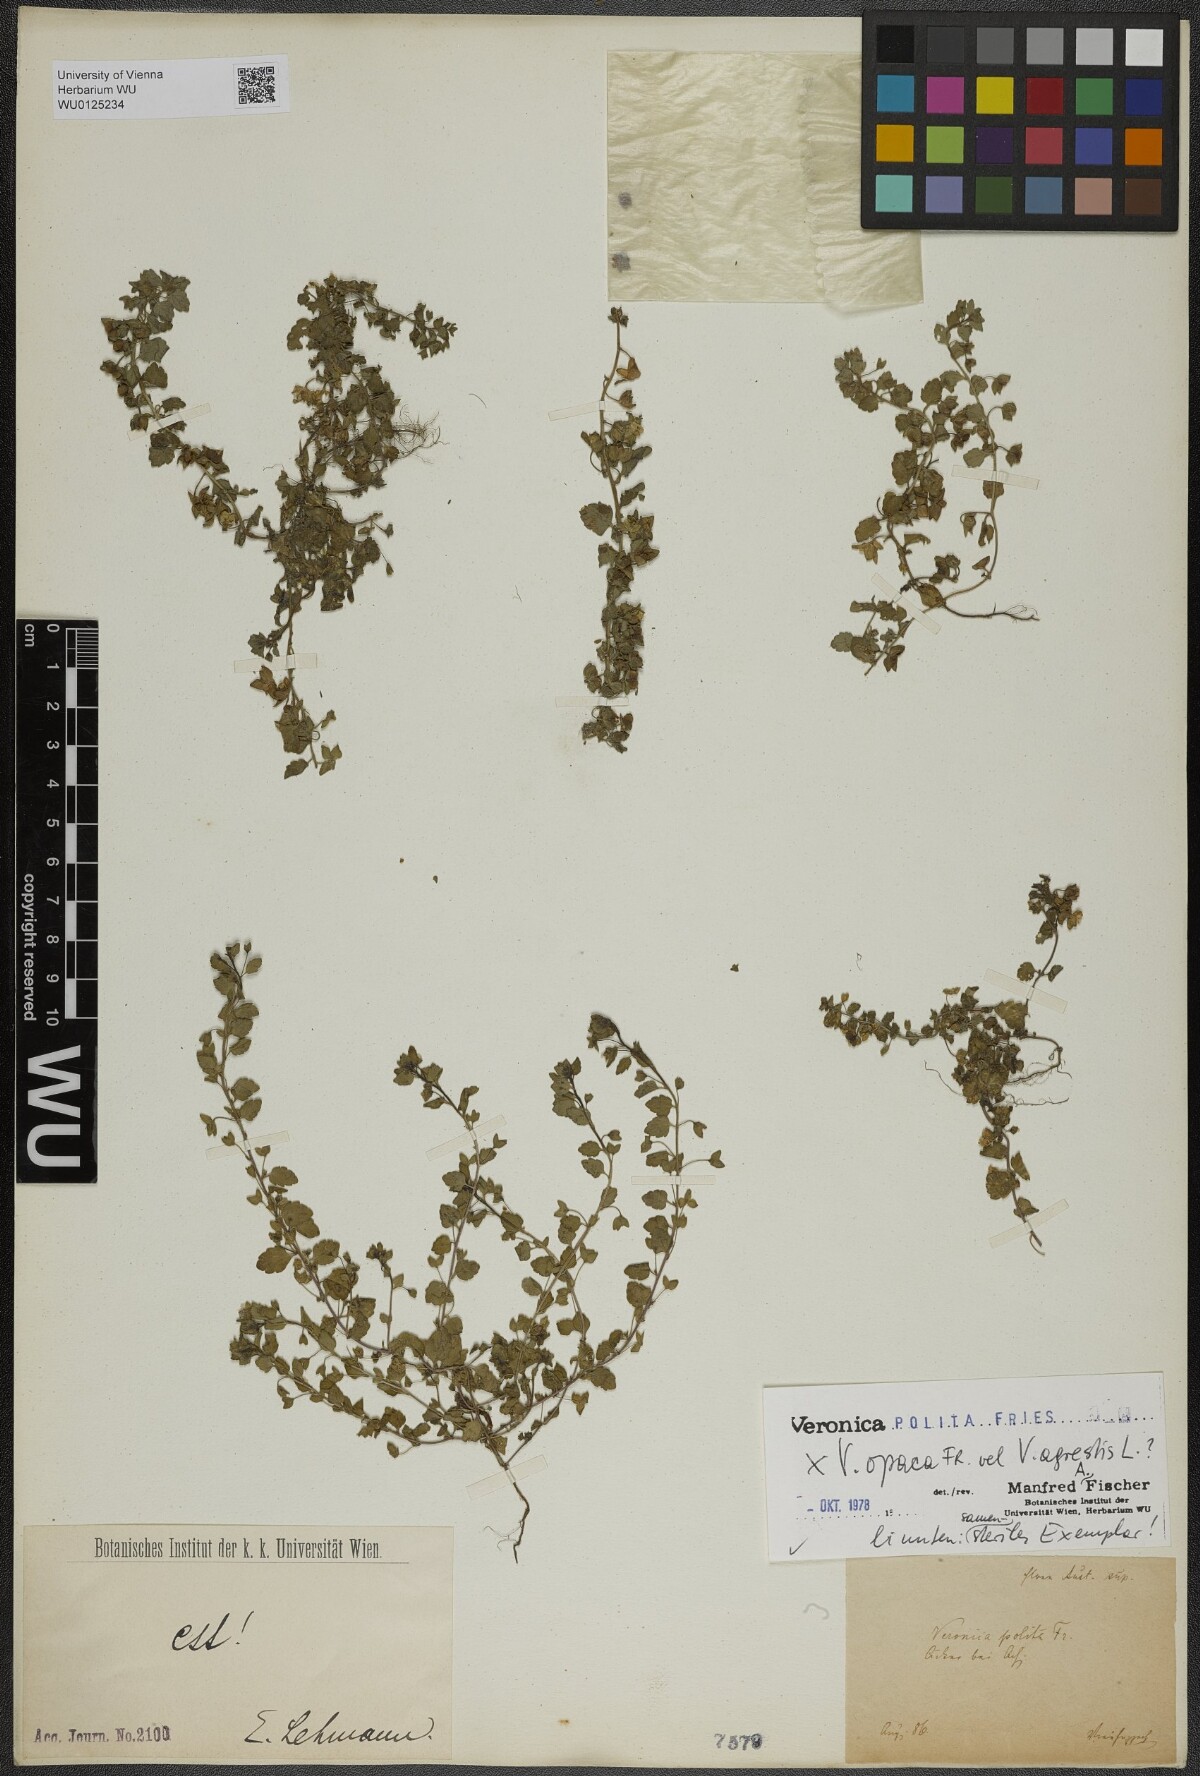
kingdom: Plantae
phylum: Tracheophyta
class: Magnoliopsida
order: Lamiales
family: Plantaginaceae
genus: Veronica
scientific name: Veronica polita
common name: Grey field-speedwell
